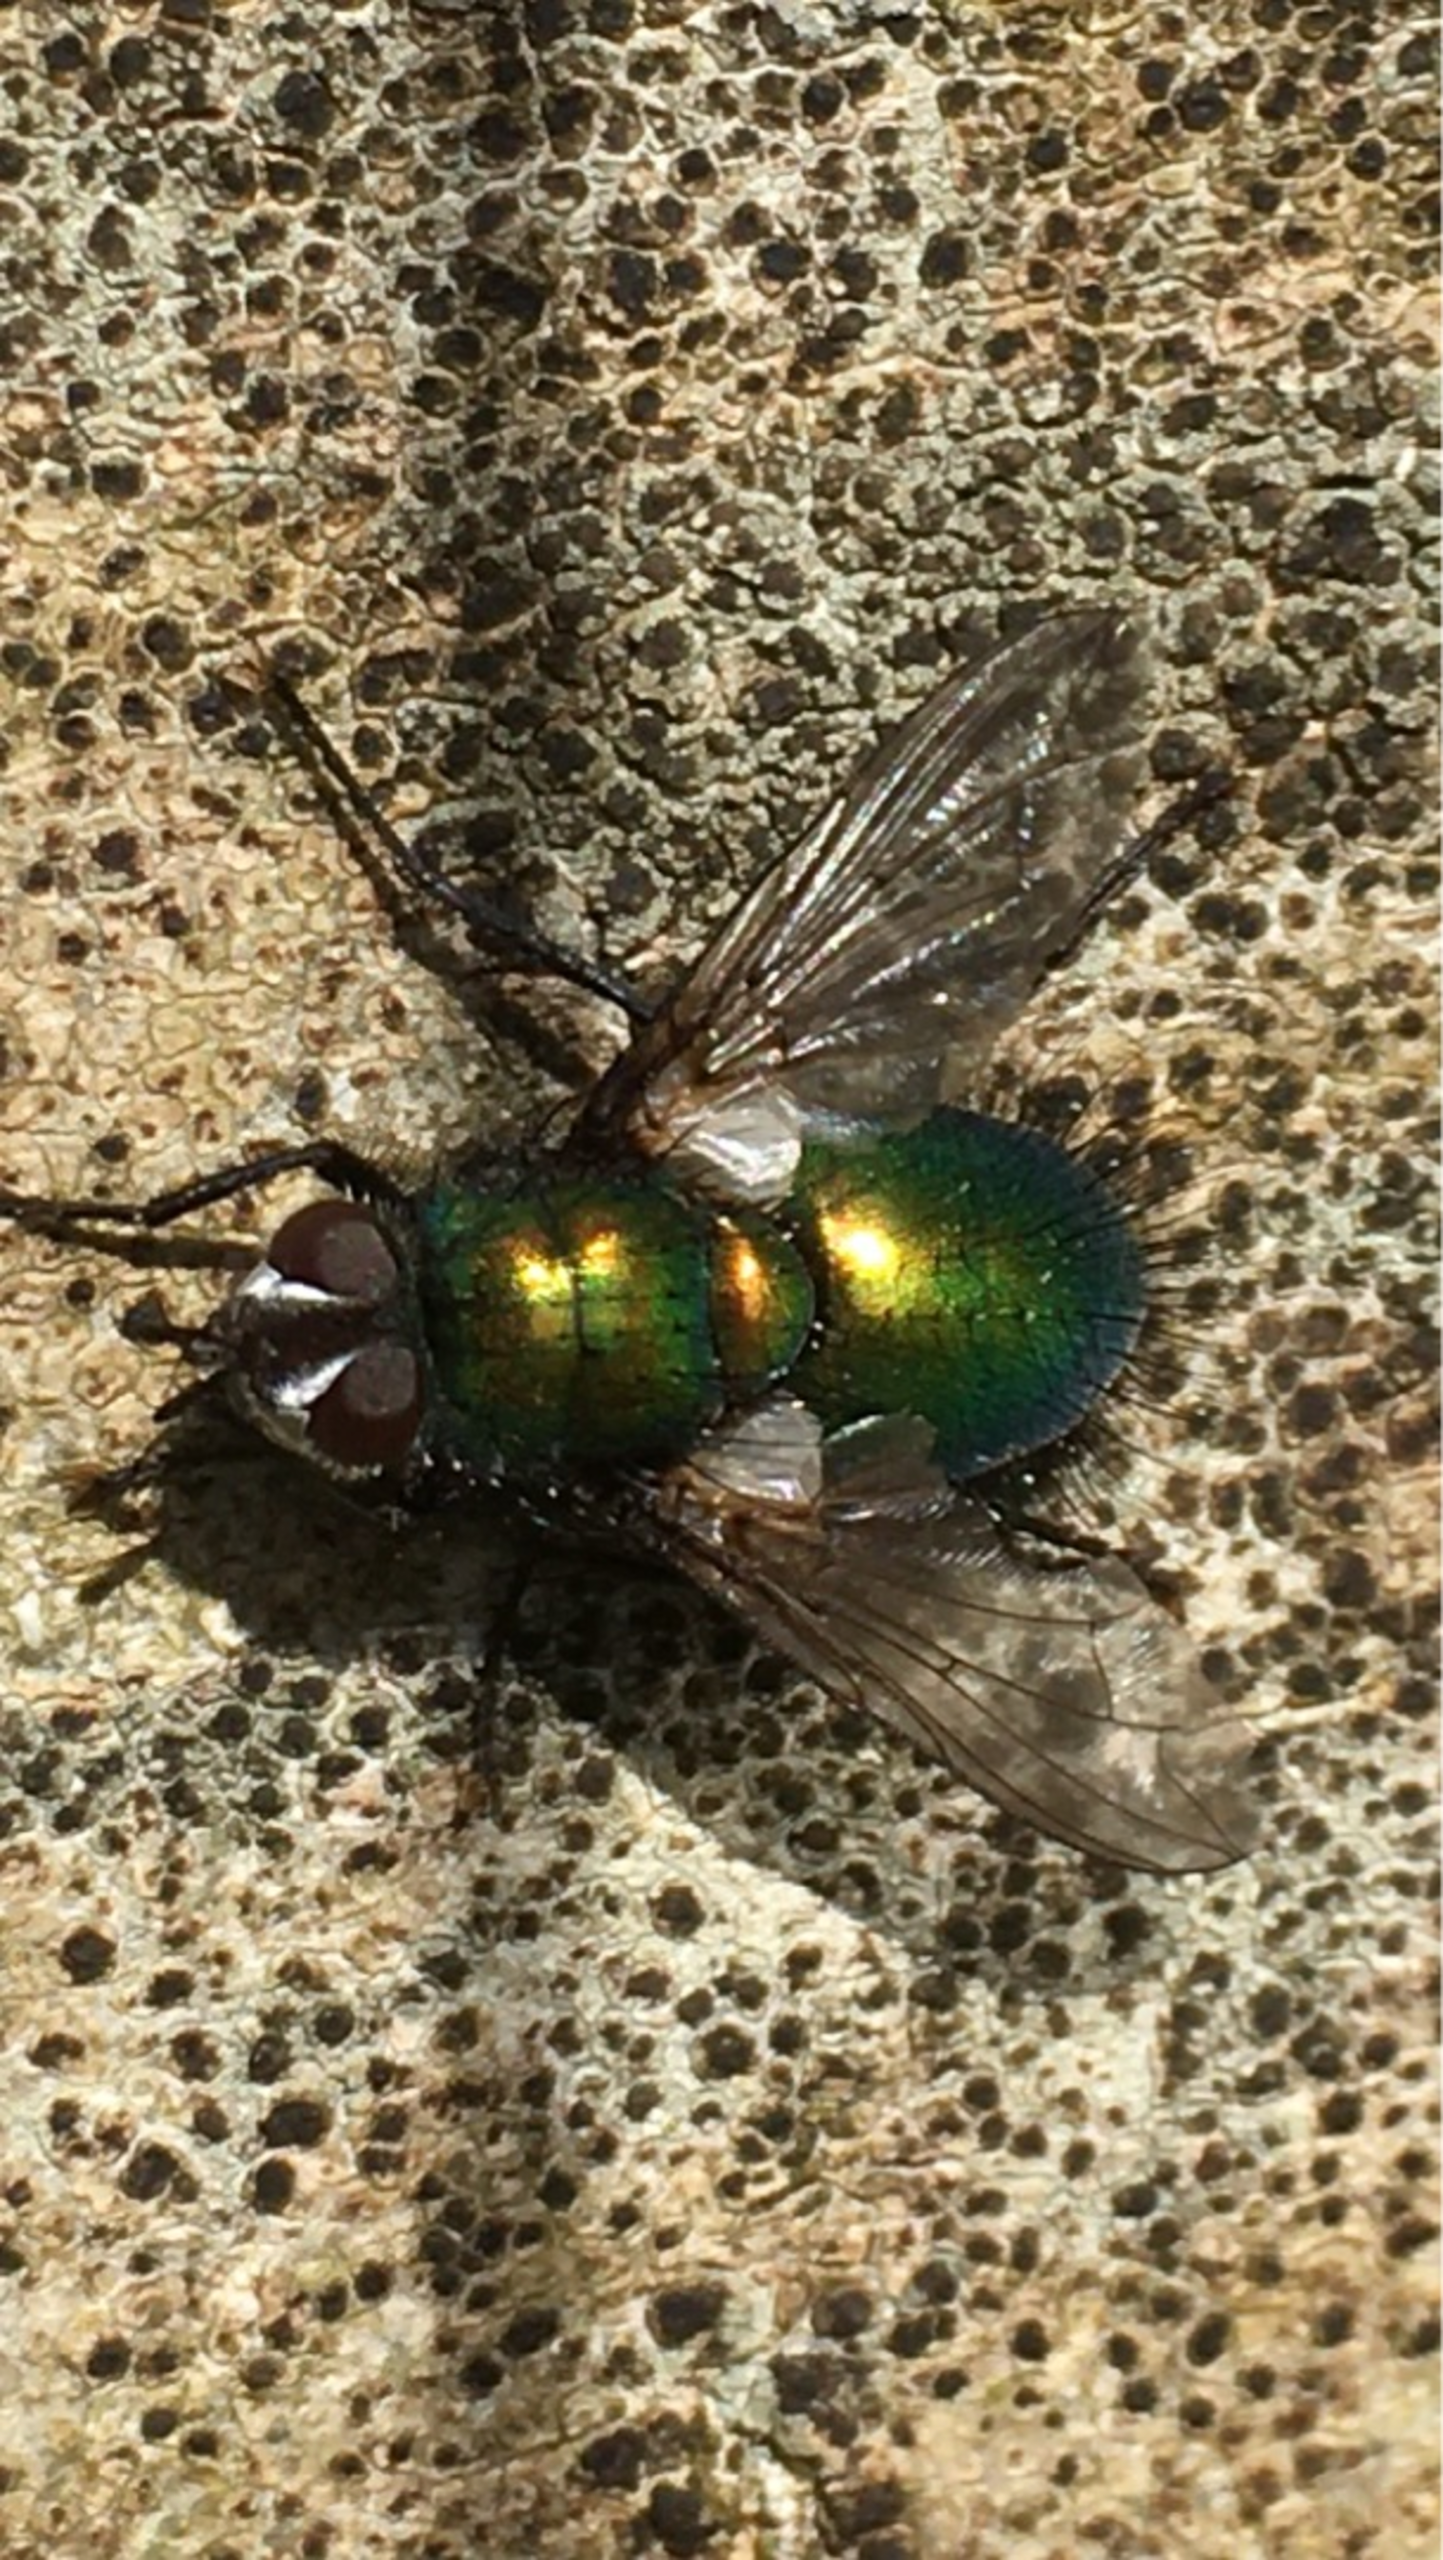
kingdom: Animalia
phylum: Arthropoda
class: Insecta
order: Diptera
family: Tachinidae
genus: Gymnocheta
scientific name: Gymnocheta viridis
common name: Grøn snylteflue
